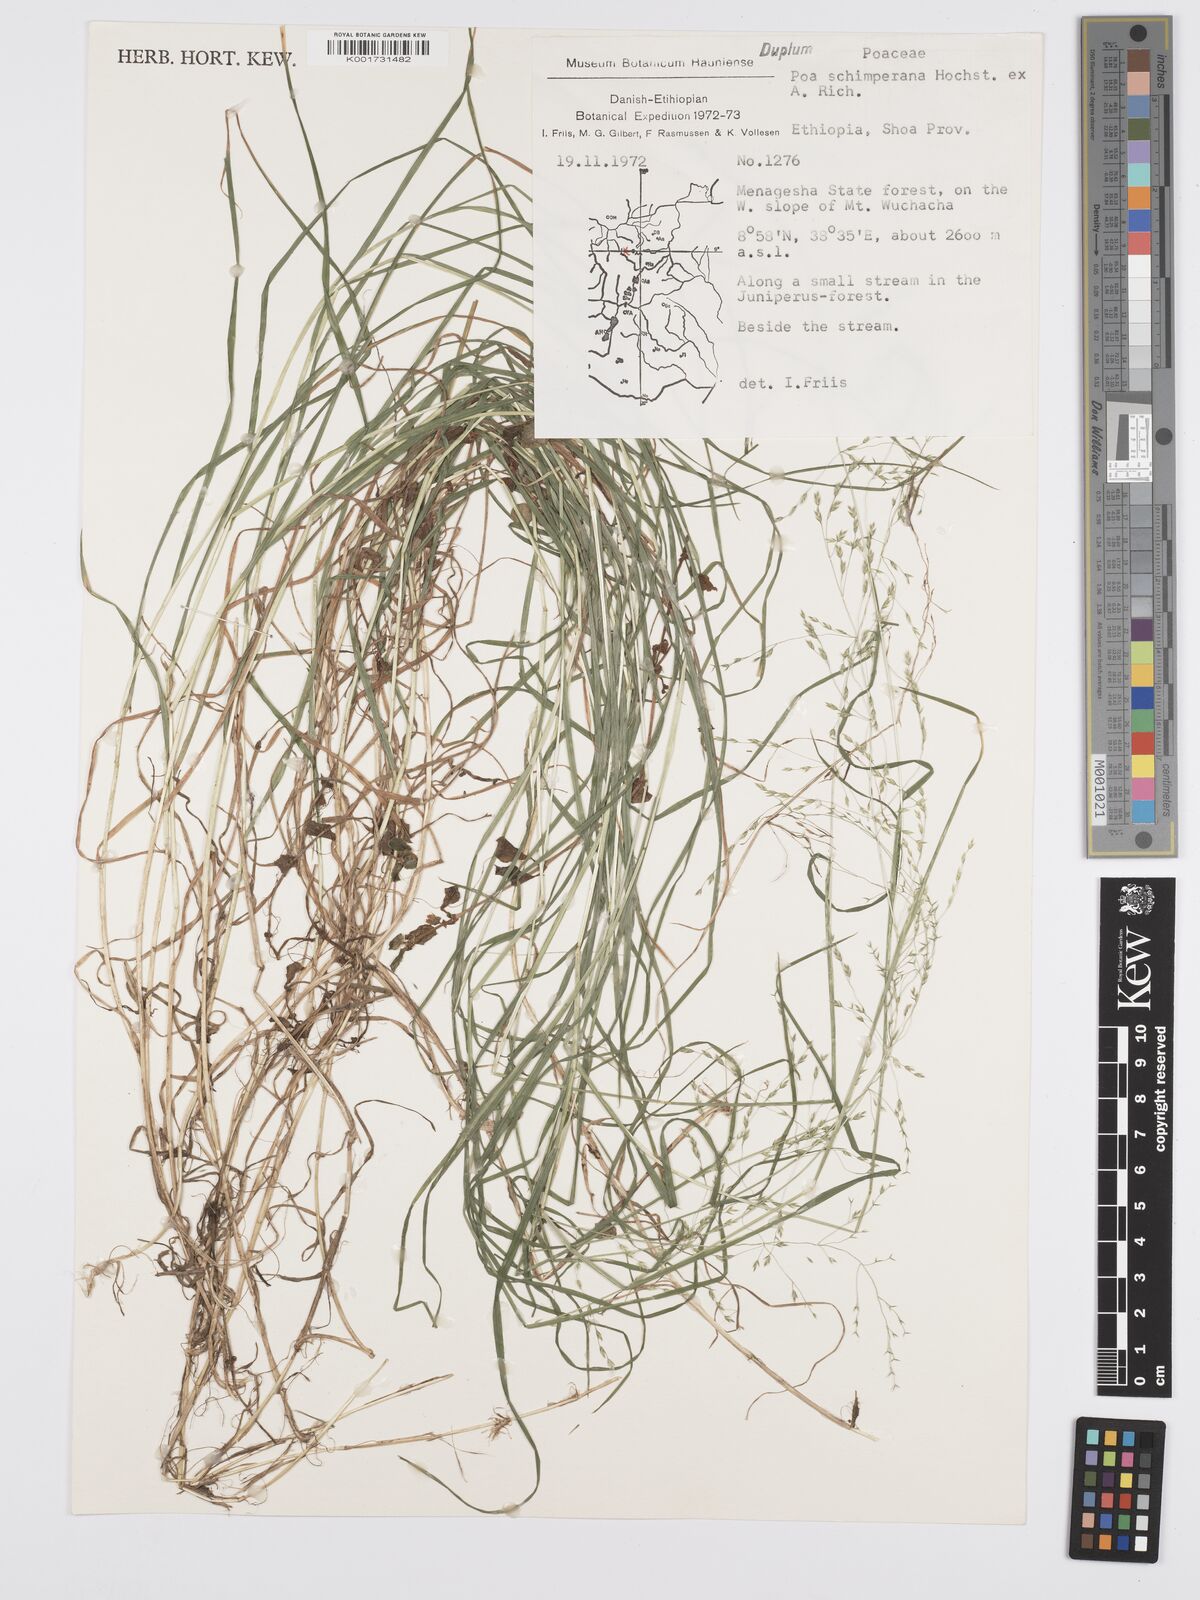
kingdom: Plantae
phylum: Tracheophyta
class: Liliopsida
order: Poales
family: Poaceae
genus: Poa
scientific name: Poa schimperiana
